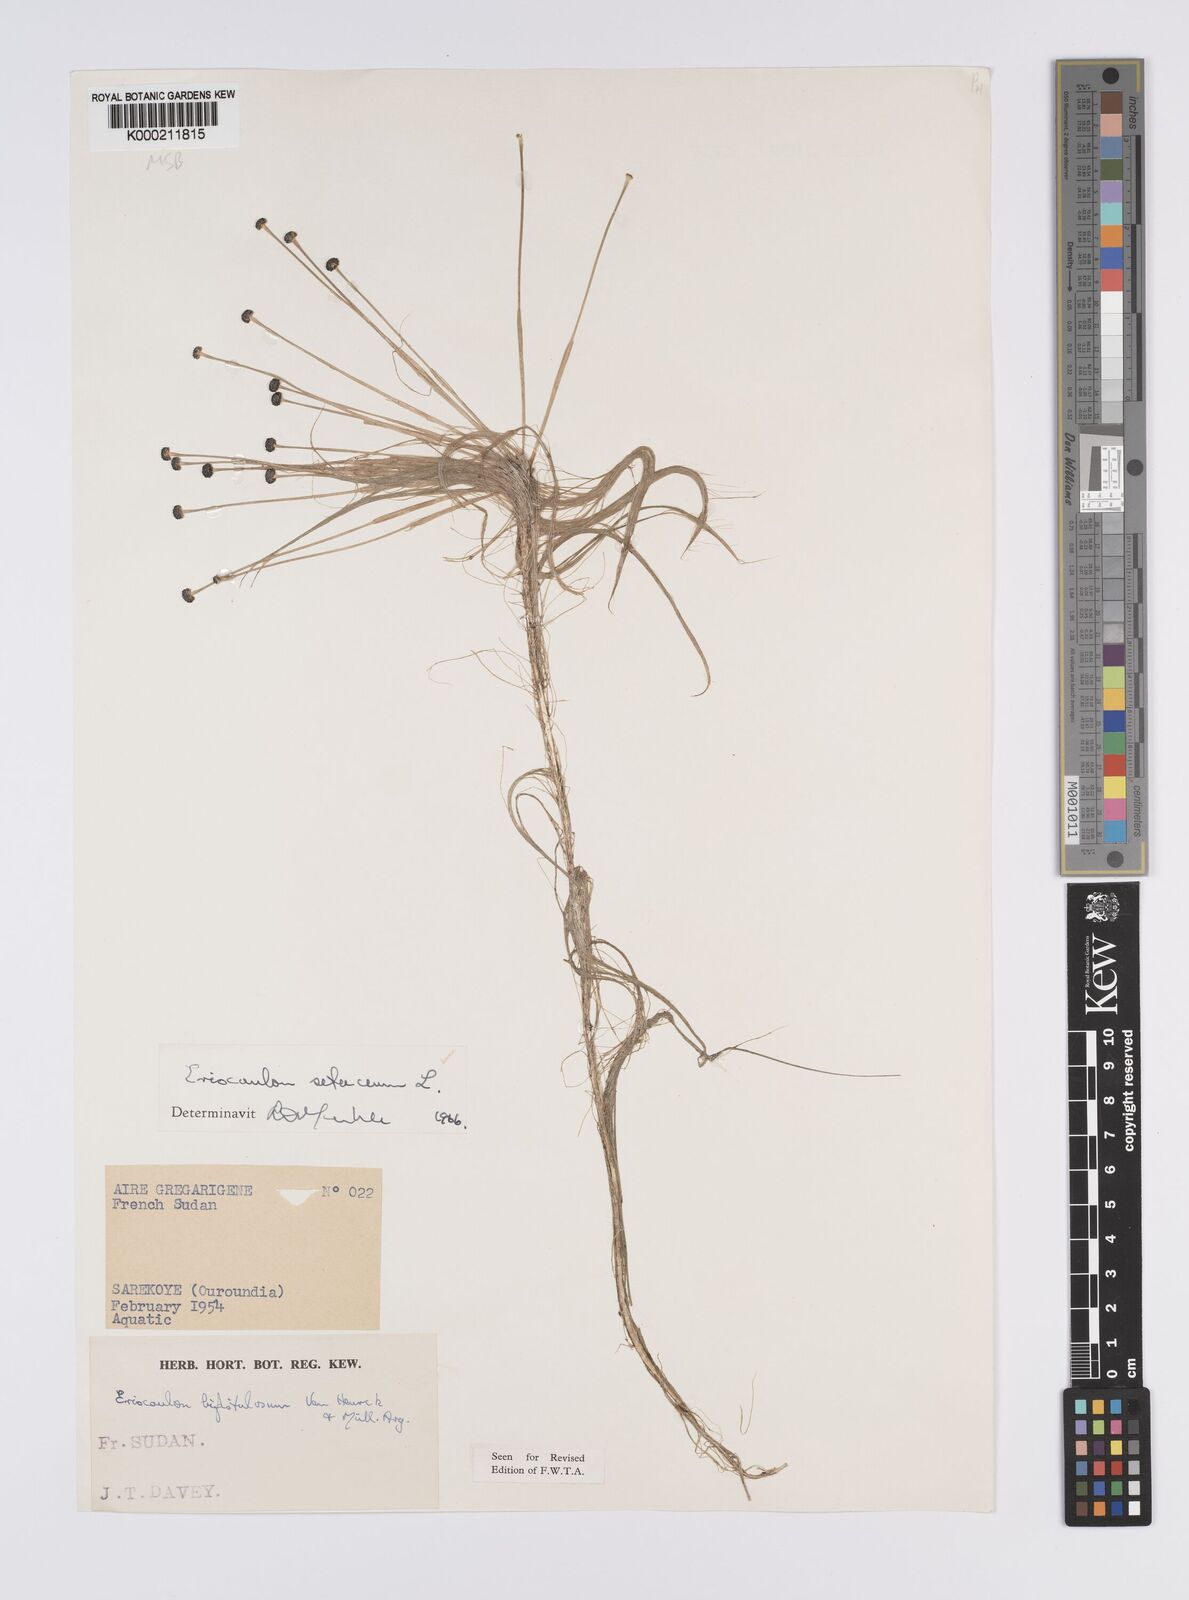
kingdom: Plantae
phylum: Tracheophyta
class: Liliopsida
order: Poales
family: Eriocaulaceae
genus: Eriocaulon
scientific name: Eriocaulon setaceum
